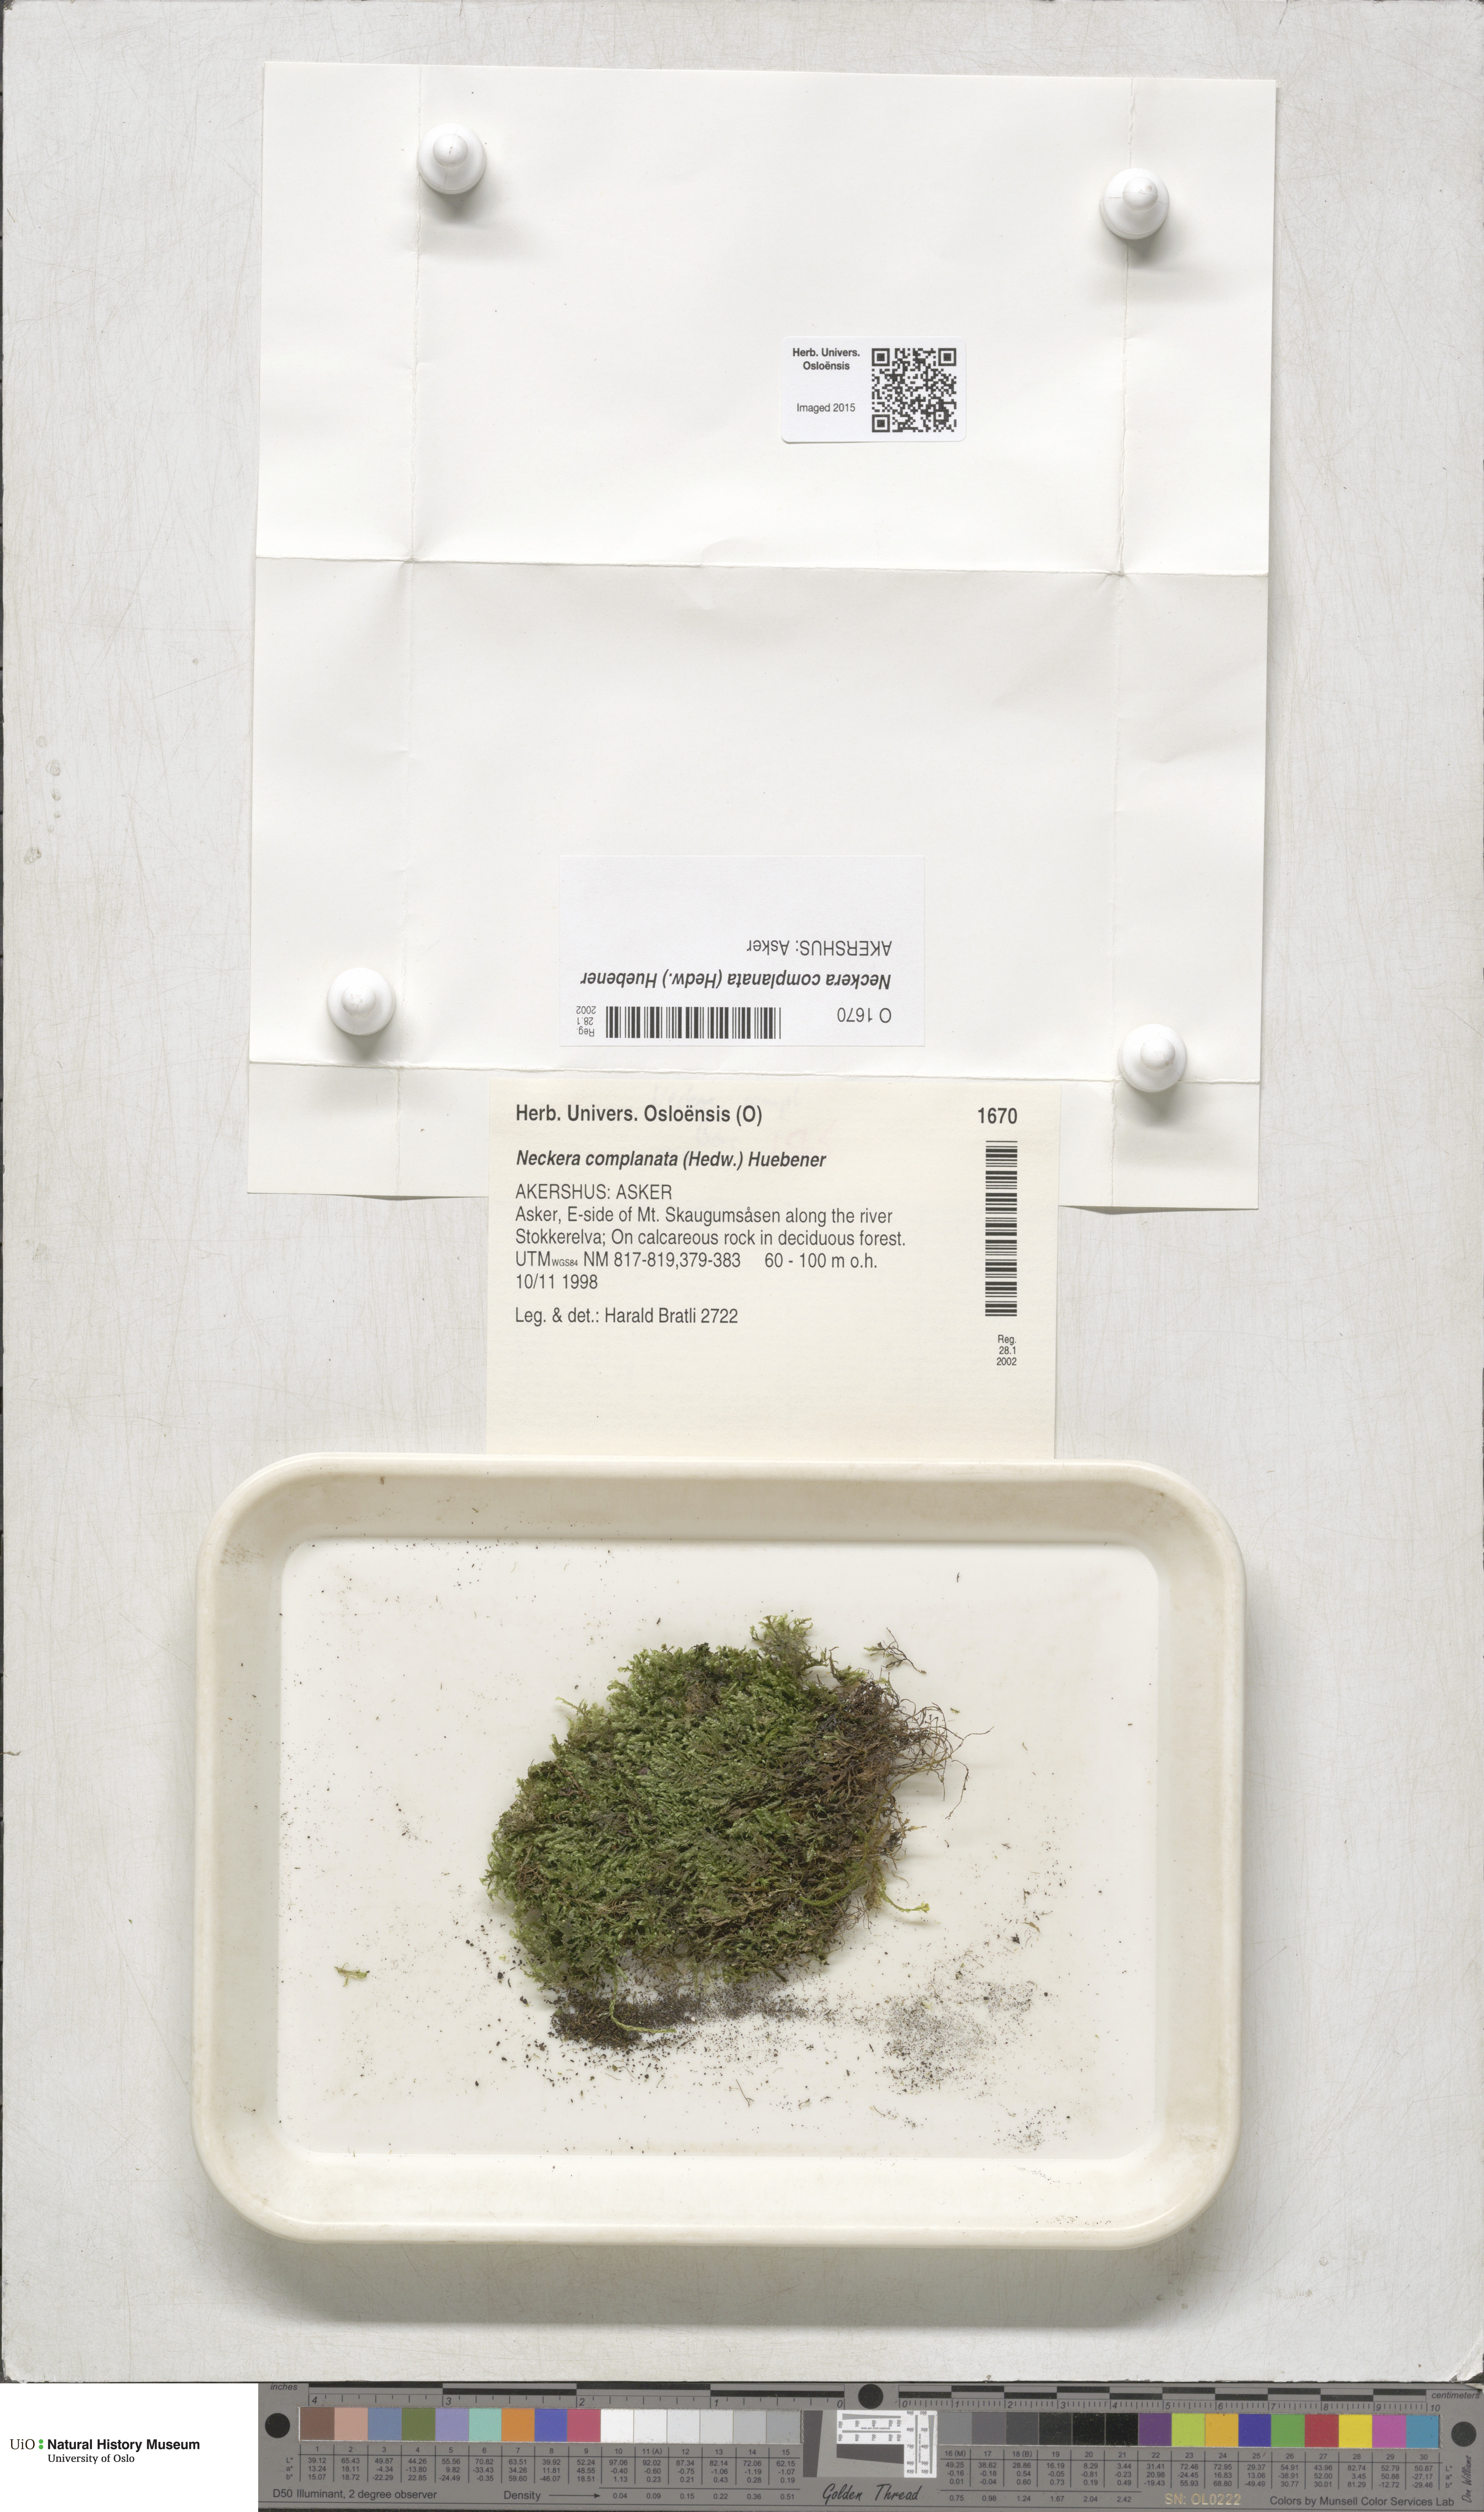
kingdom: Plantae
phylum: Bryophyta
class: Bryopsida
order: Hypnales
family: Neckeraceae
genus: Alleniella
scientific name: Alleniella complanata
